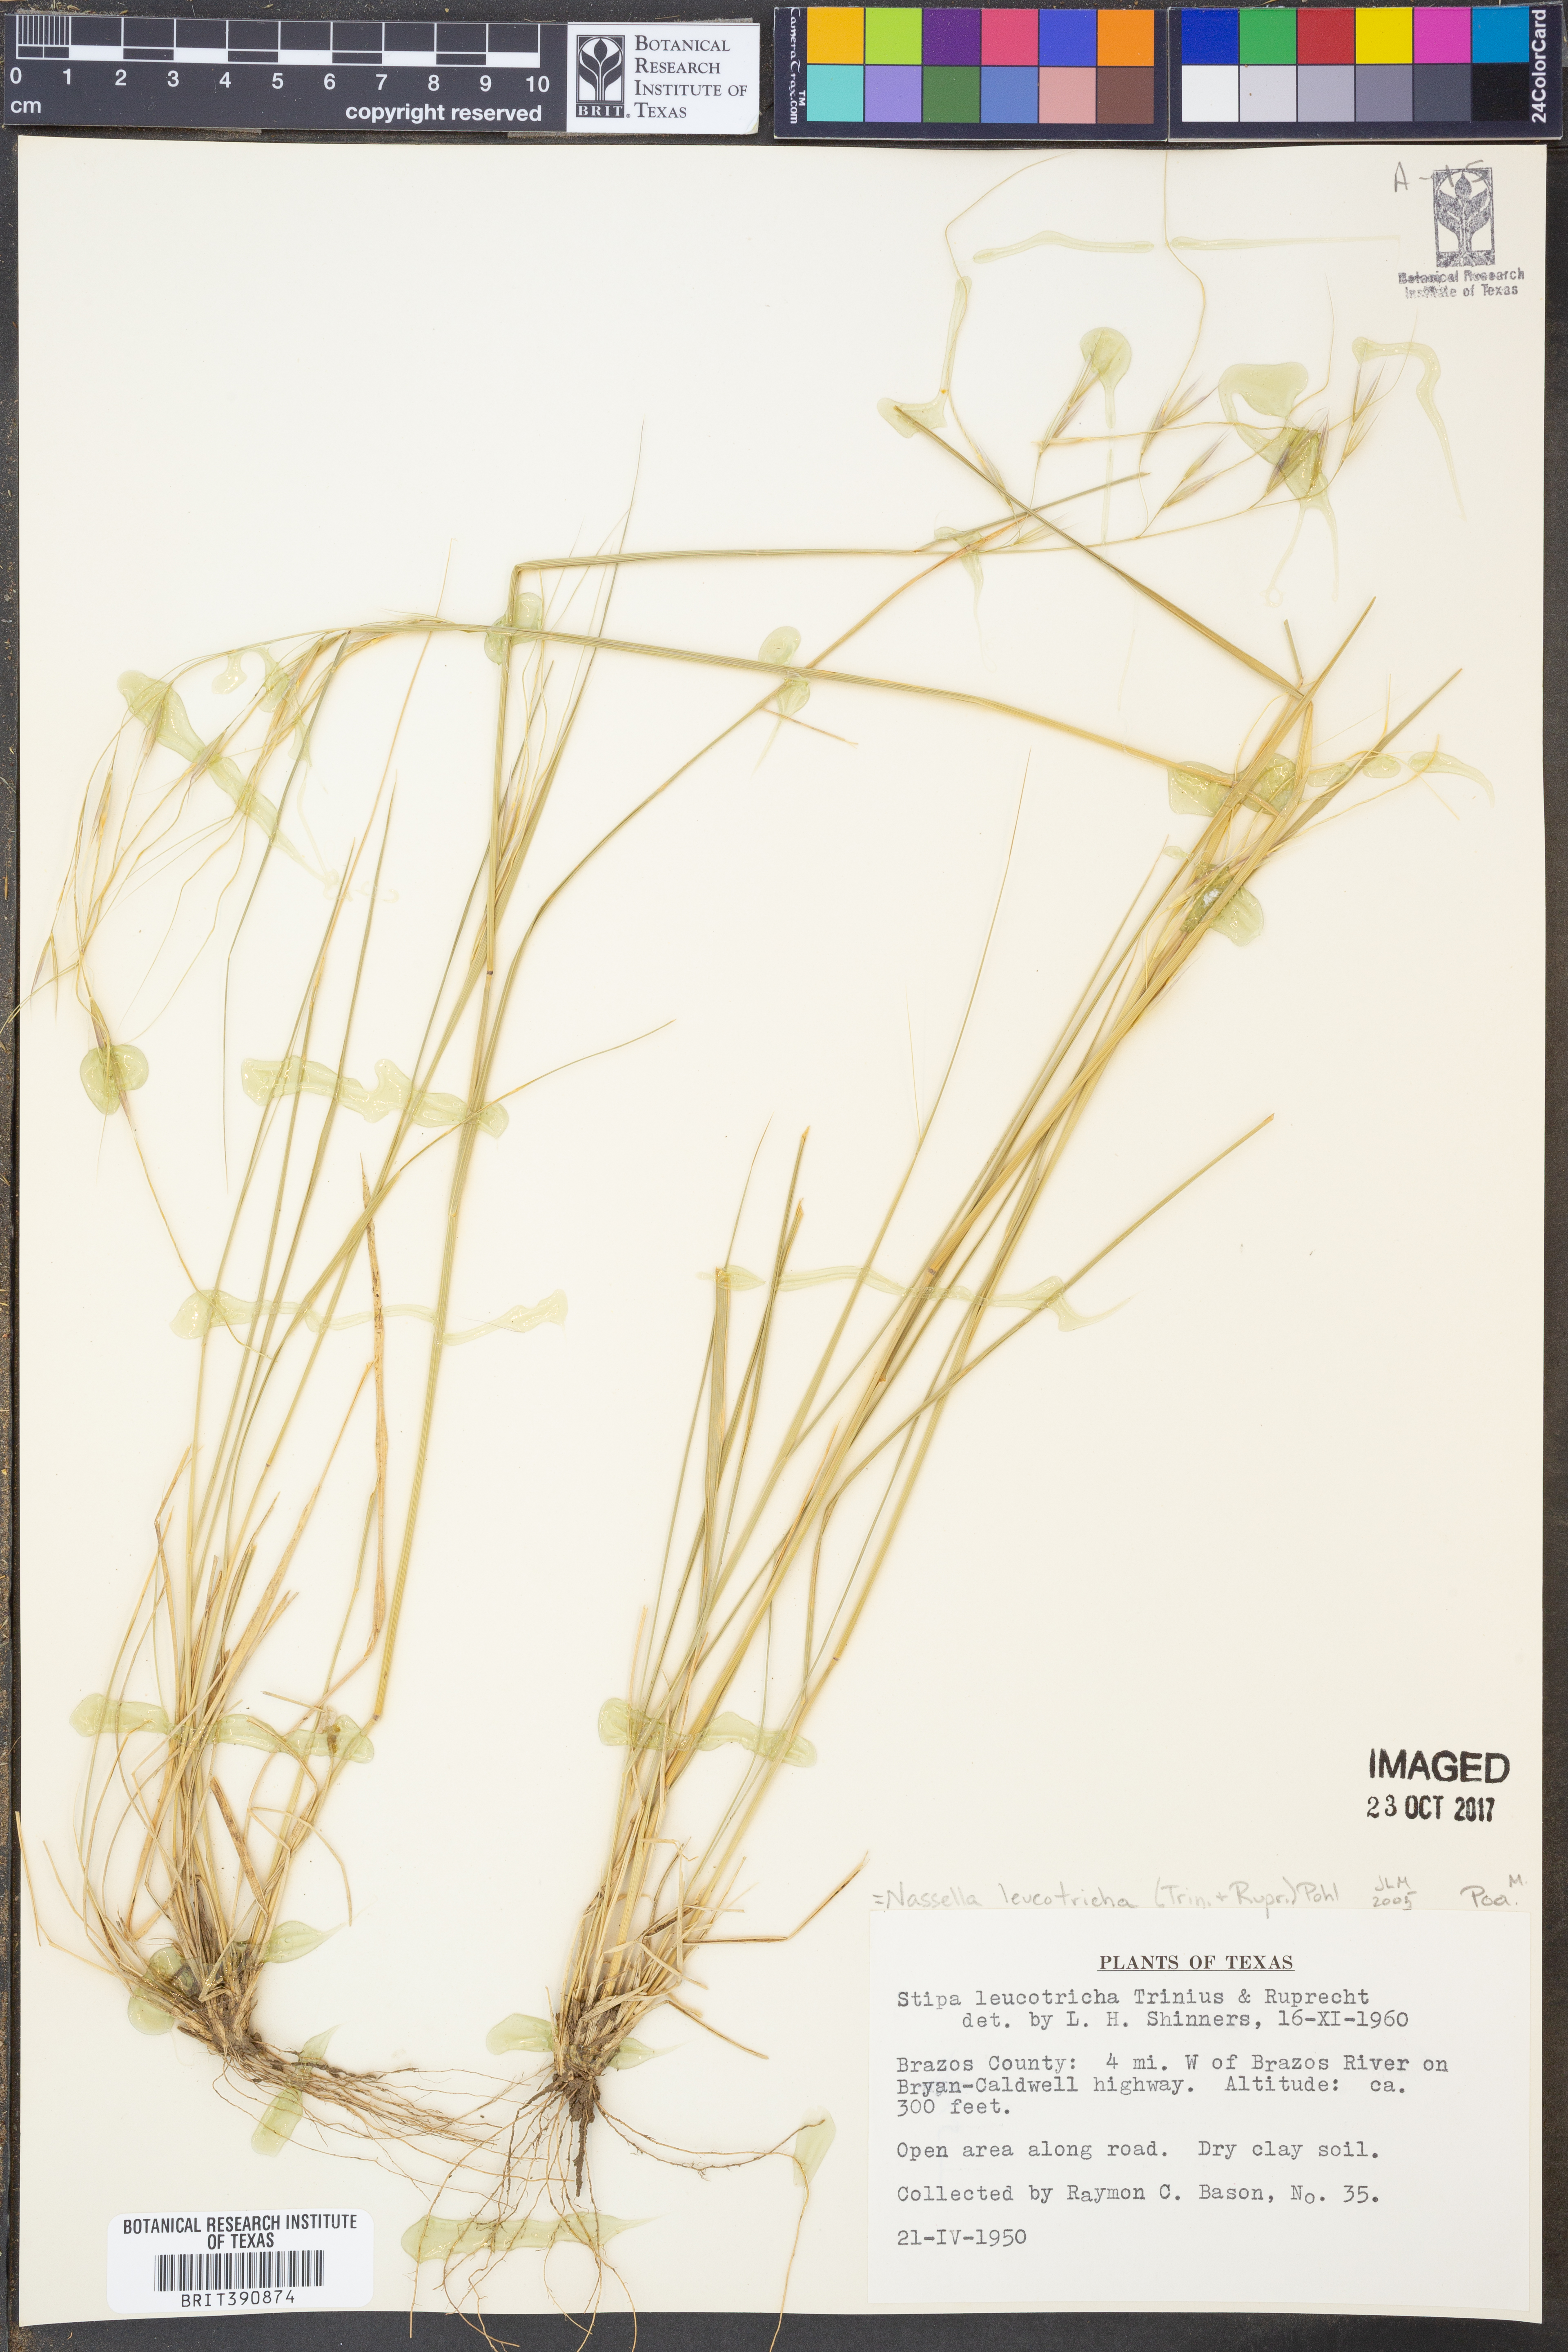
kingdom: Plantae
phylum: Tracheophyta
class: Liliopsida
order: Poales
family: Poaceae
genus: Nassella
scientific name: Nassella leucotricha
